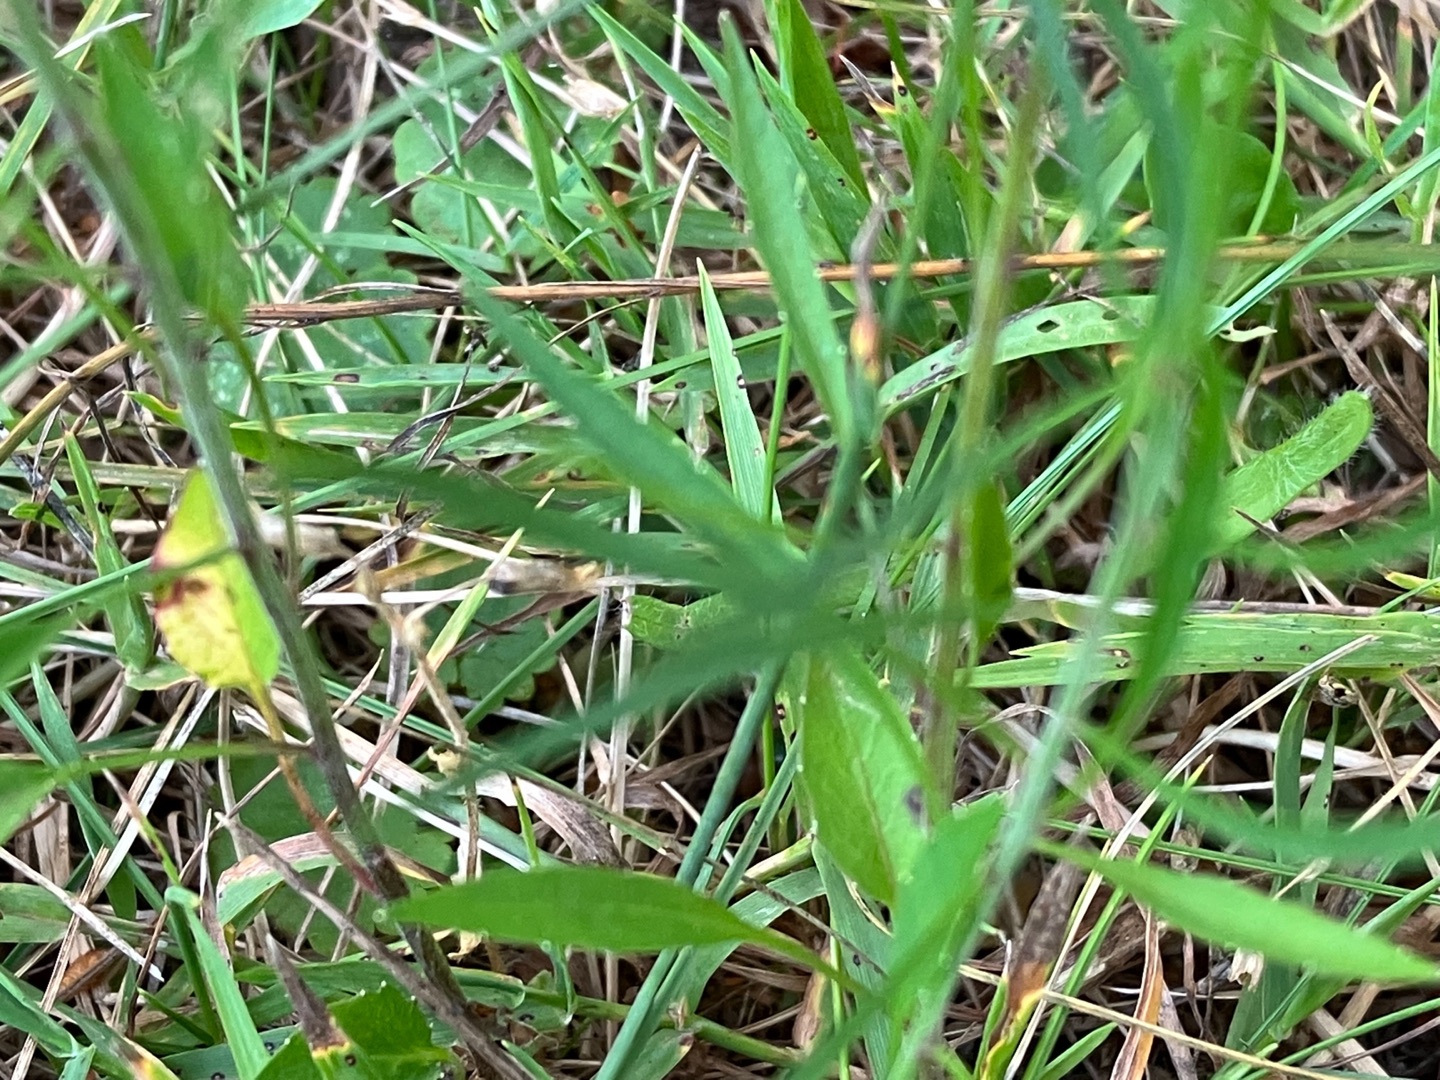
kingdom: Plantae
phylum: Tracheophyta
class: Magnoliopsida
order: Asterales
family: Campanulaceae
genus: Campanula
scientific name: Campanula rotundifolia
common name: Liden klokke
